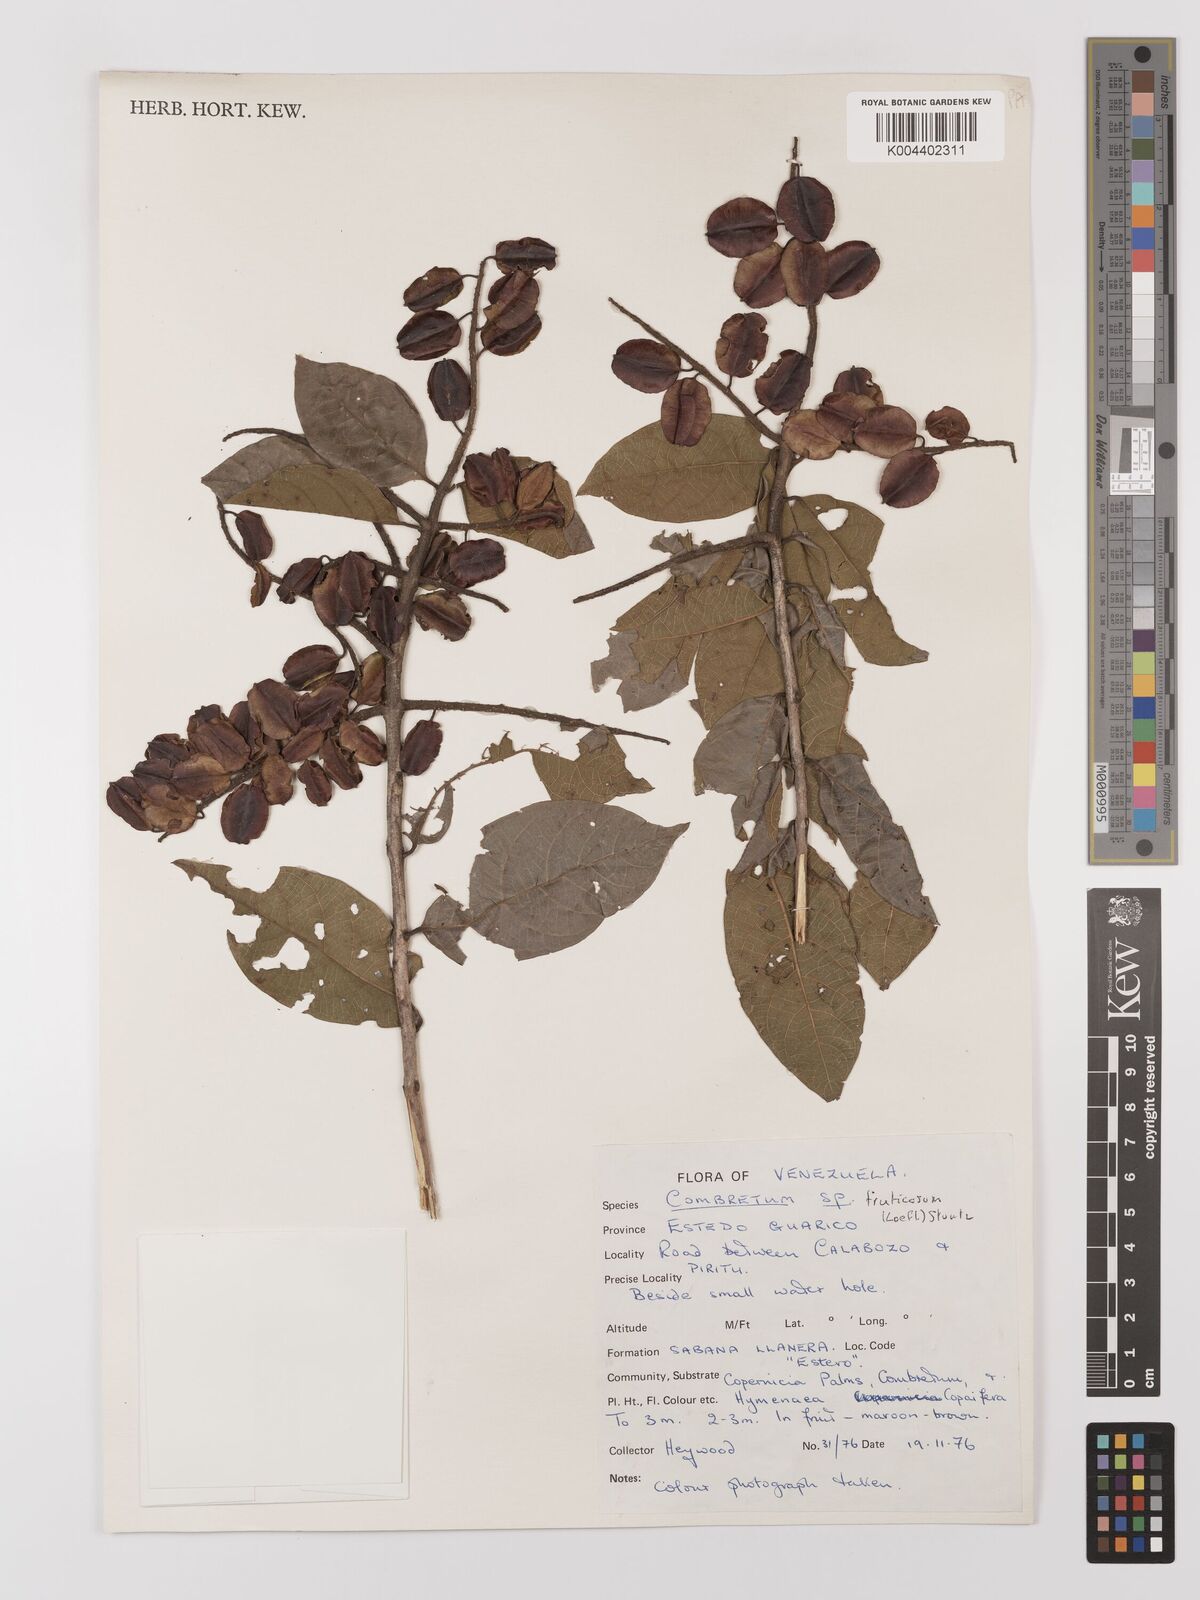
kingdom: Plantae
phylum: Tracheophyta
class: Magnoliopsida
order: Myrtales
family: Combretaceae
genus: Combretum
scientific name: Combretum fruticosum
